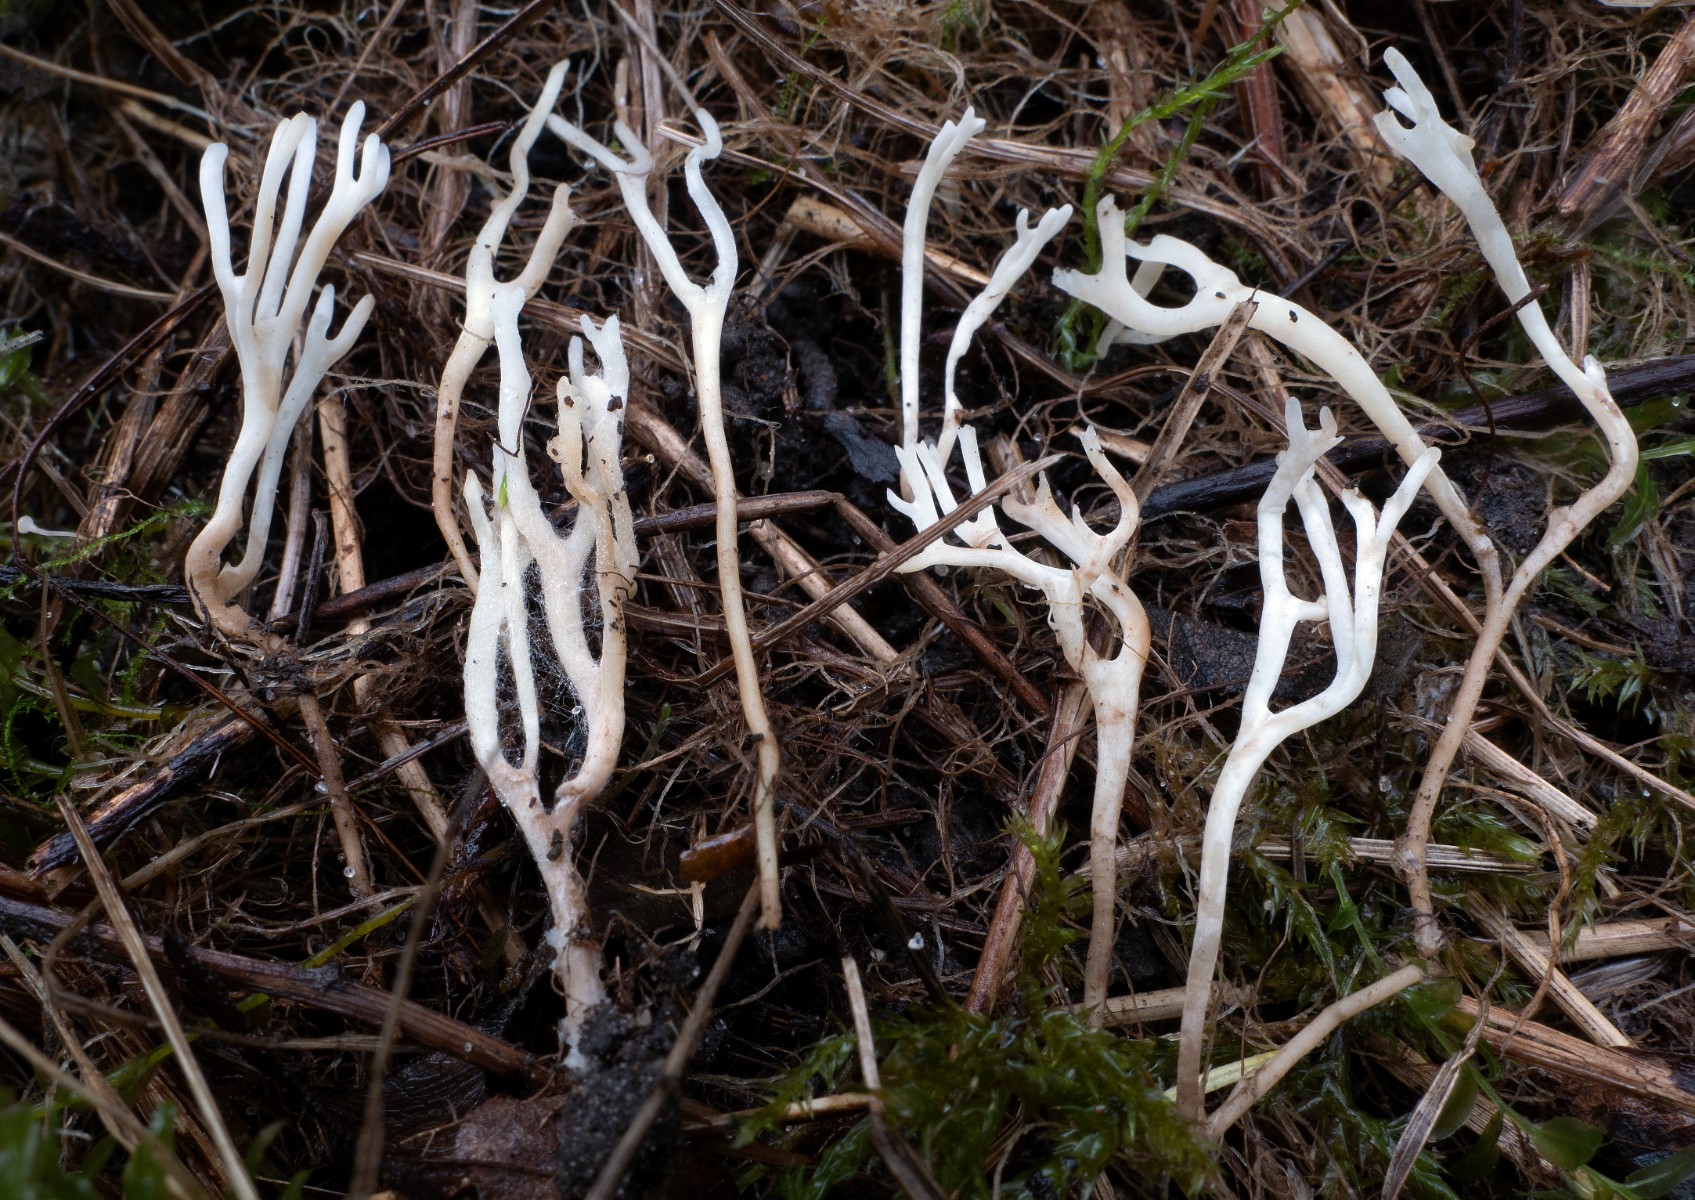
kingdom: Fungi
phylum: Basidiomycota
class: Agaricomycetes
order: Agaricales
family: Clavariaceae
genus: Ramariopsis
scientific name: Ramariopsis tenuicula
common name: spinkel køllesvamp
